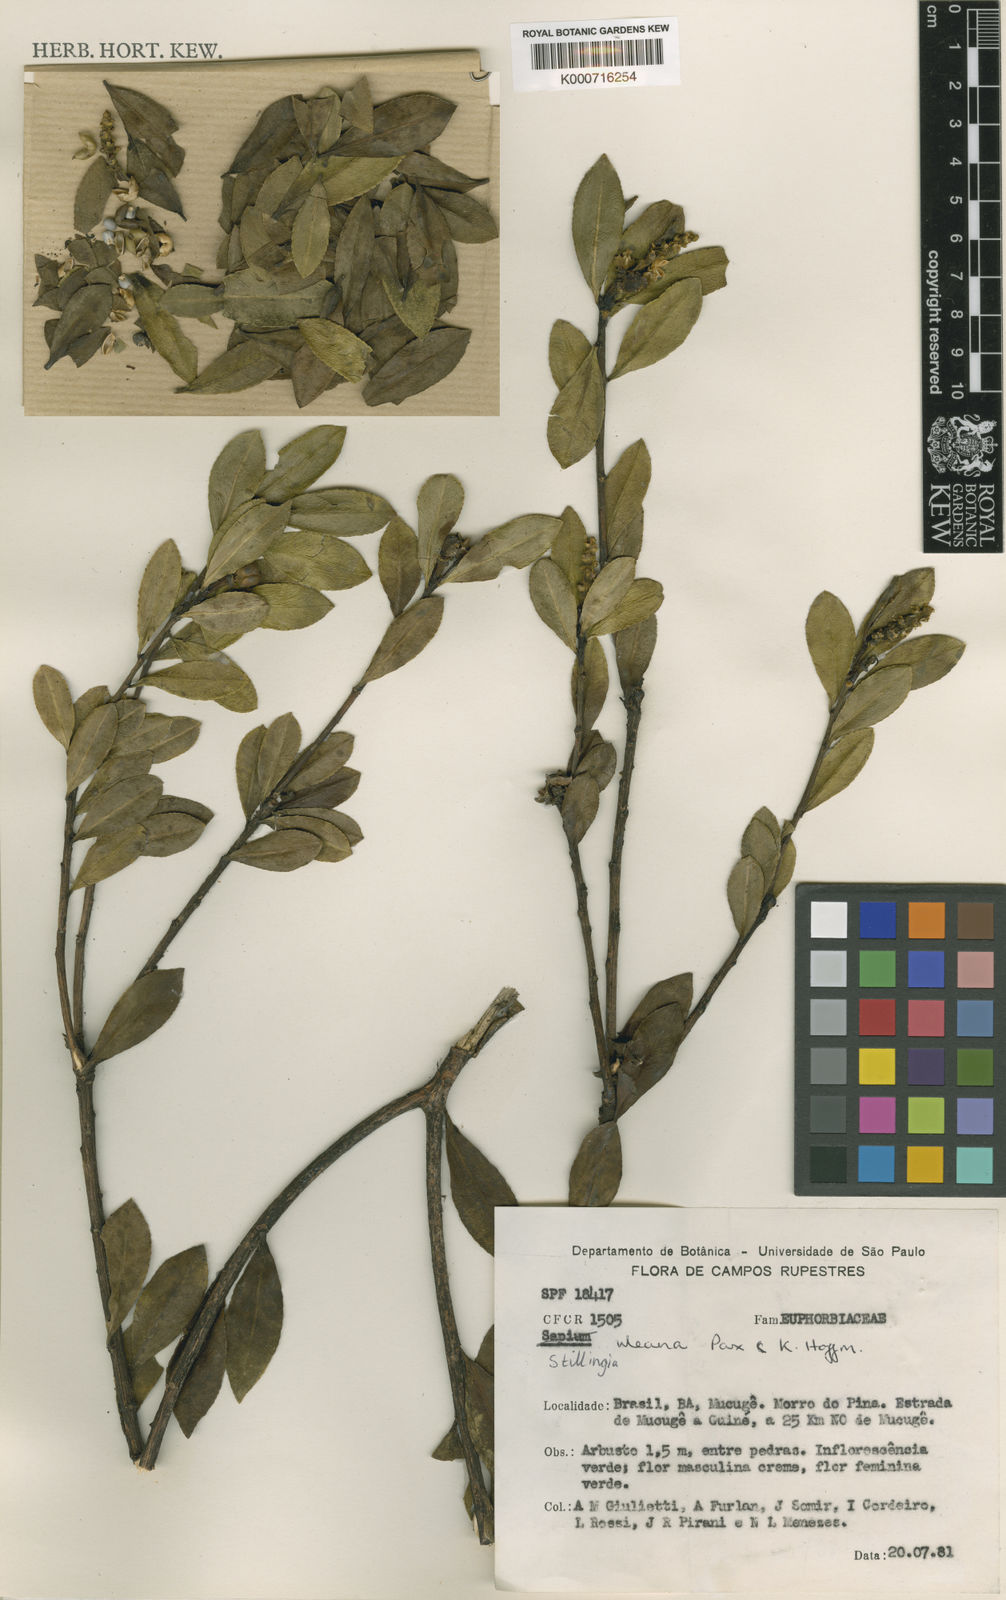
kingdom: Plantae
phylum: Tracheophyta
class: Magnoliopsida
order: Malpighiales
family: Euphorbiaceae
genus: Stillingia
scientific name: Stillingia uleana
